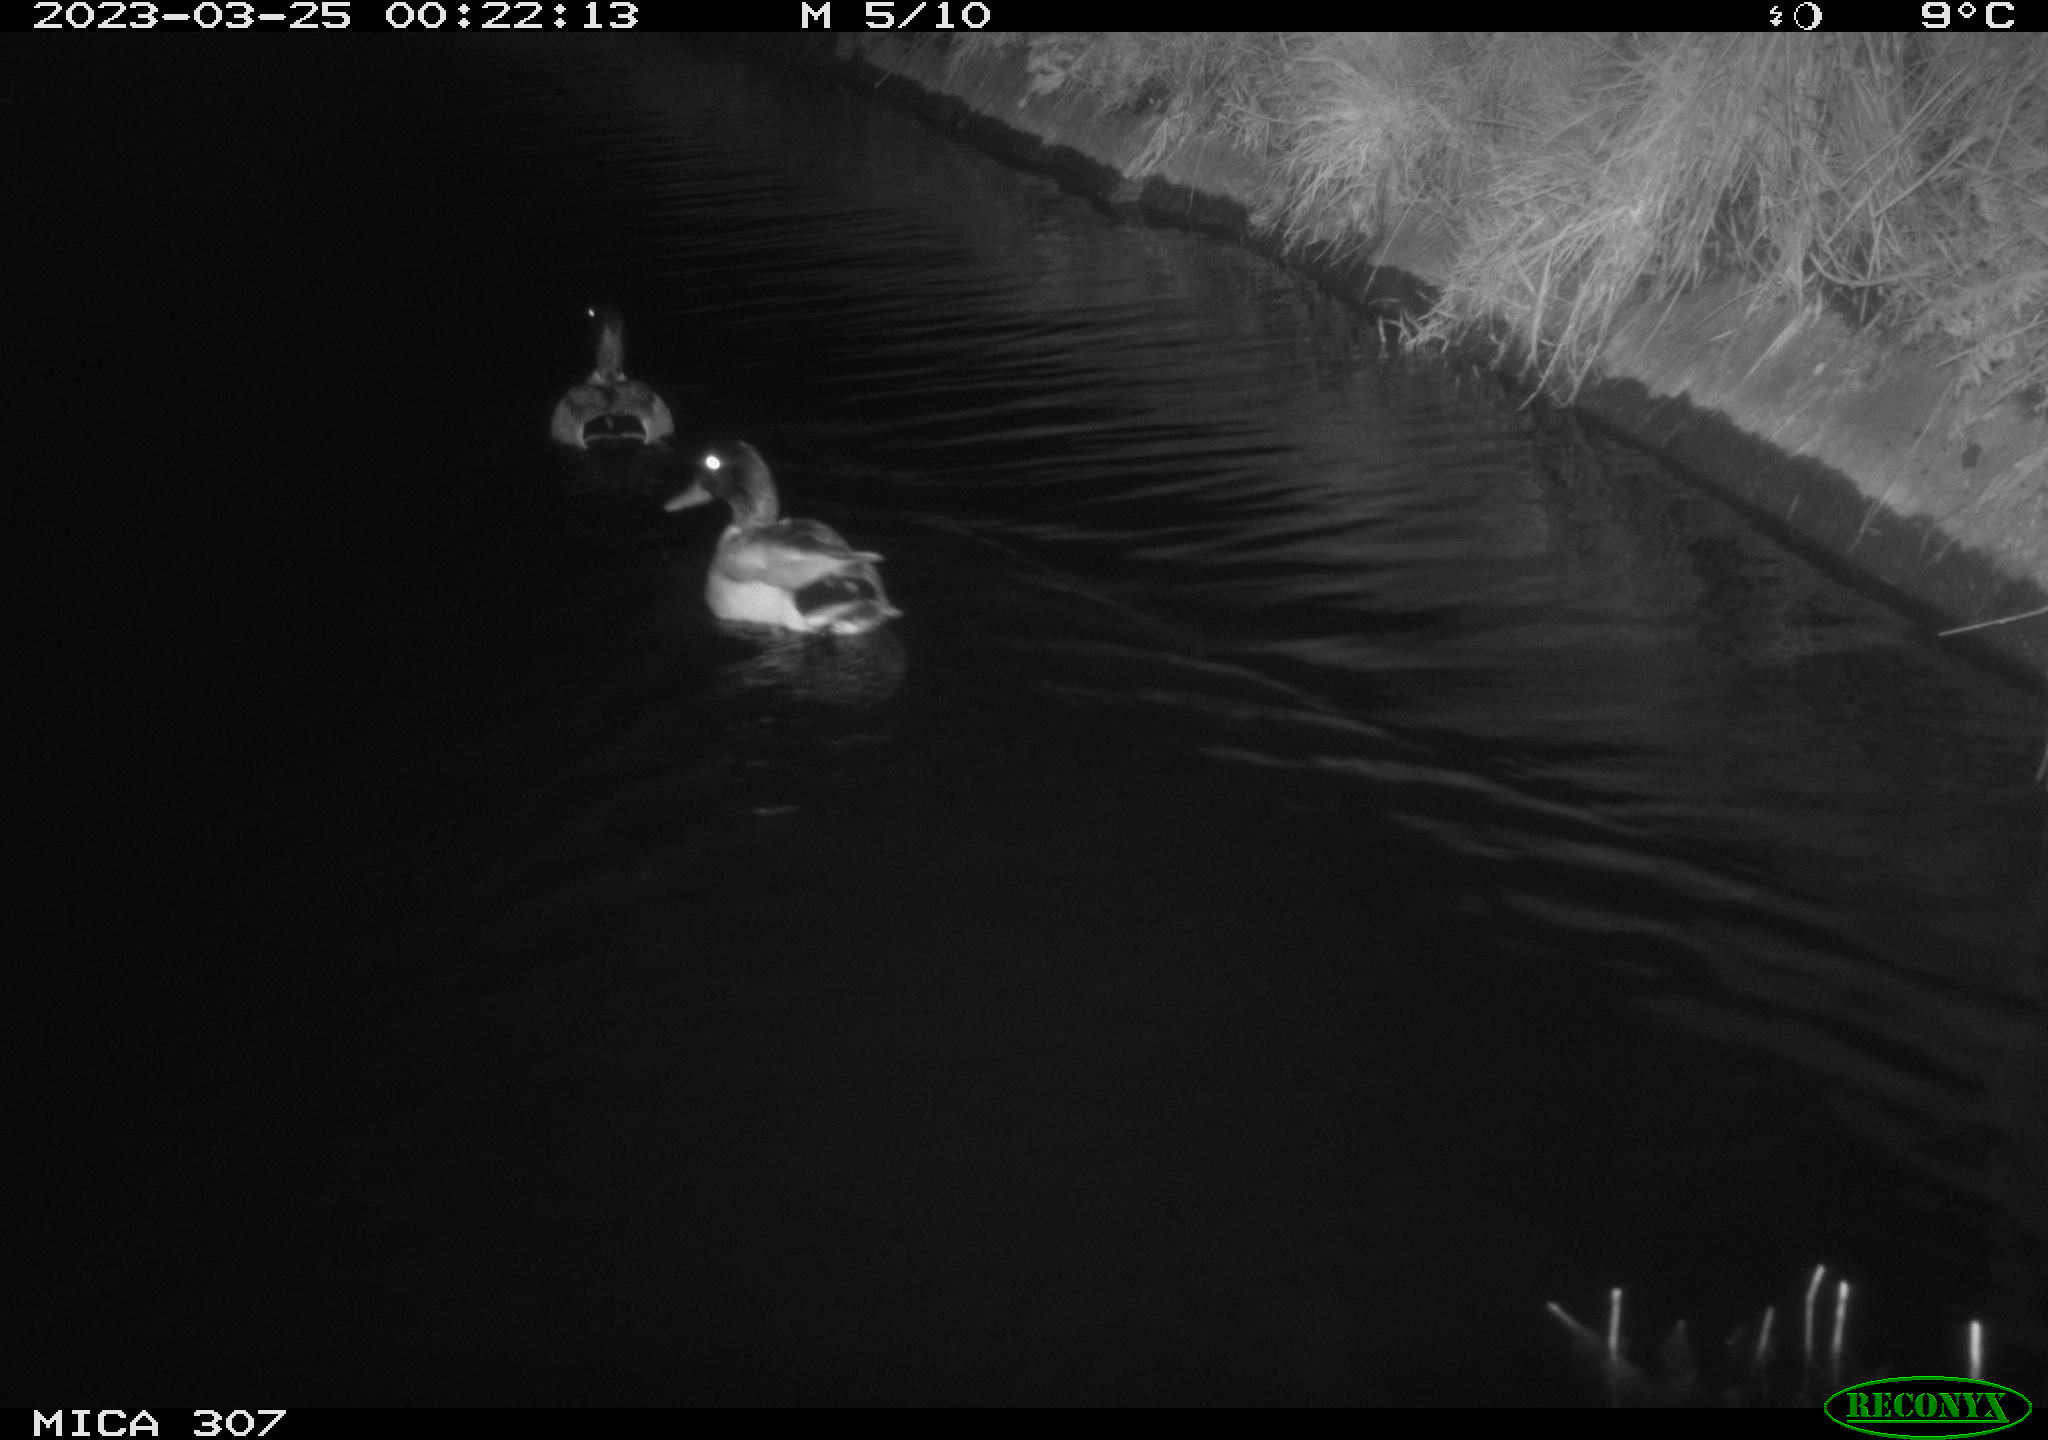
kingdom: Animalia
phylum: Chordata
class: Aves
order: Anseriformes
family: Anatidae
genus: Anas
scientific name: Anas
